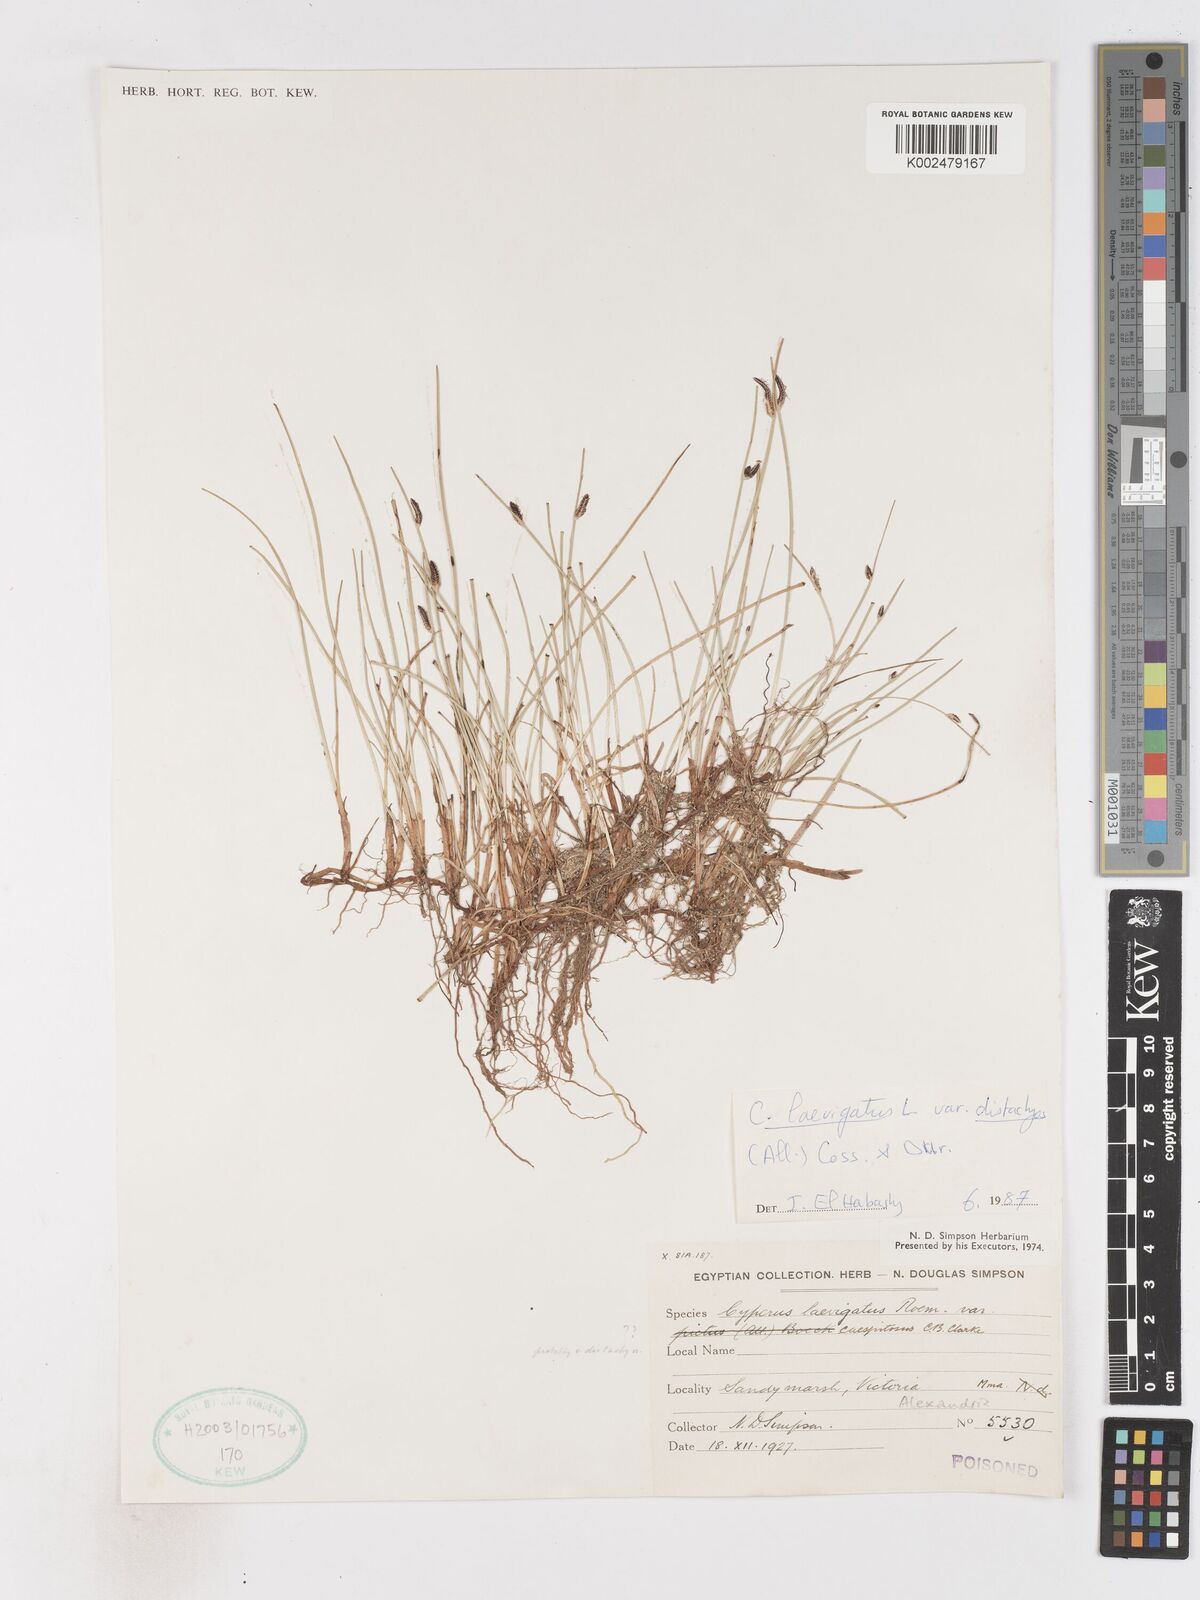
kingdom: Plantae
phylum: Tracheophyta
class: Liliopsida
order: Poales
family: Cyperaceae
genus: Cyperus
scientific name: Cyperus laevigatus
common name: Smooth flat sedge
